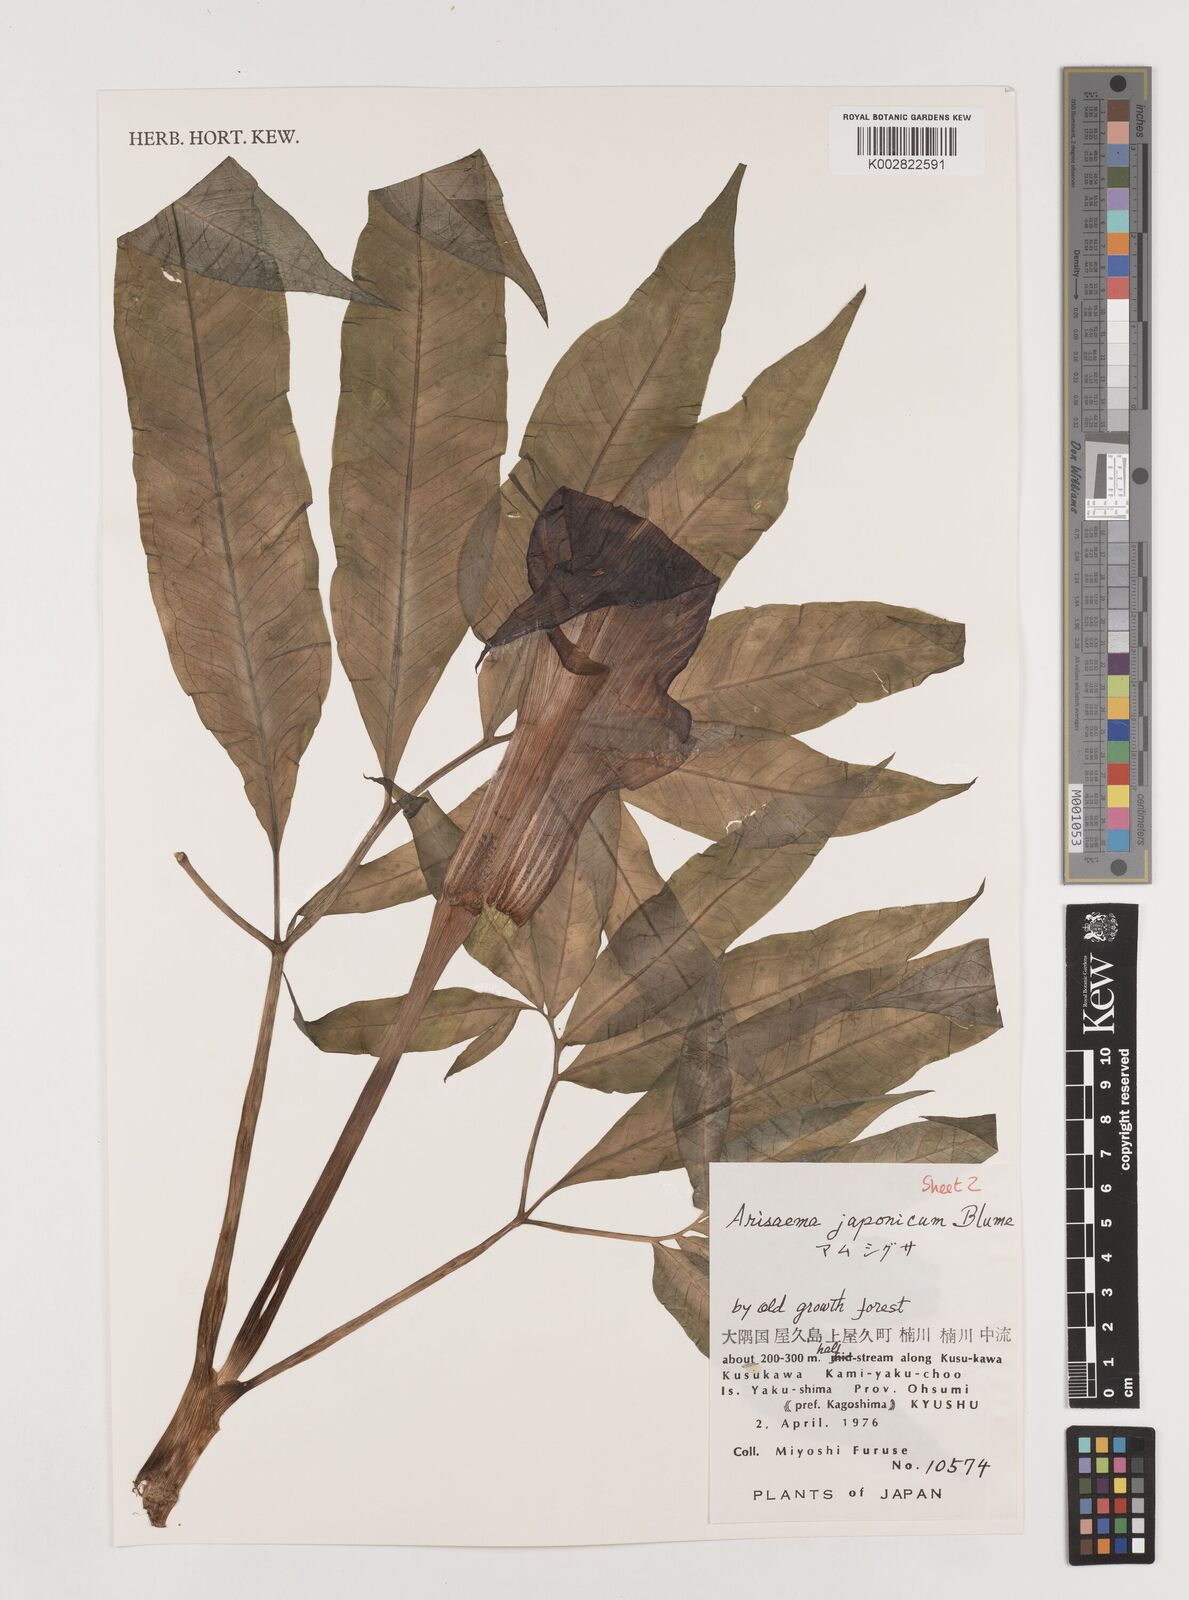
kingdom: Plantae
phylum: Tracheophyta
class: Liliopsida
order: Alismatales
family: Araceae
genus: Arisaema
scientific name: Arisaema serratum
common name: Japanese arisaema
